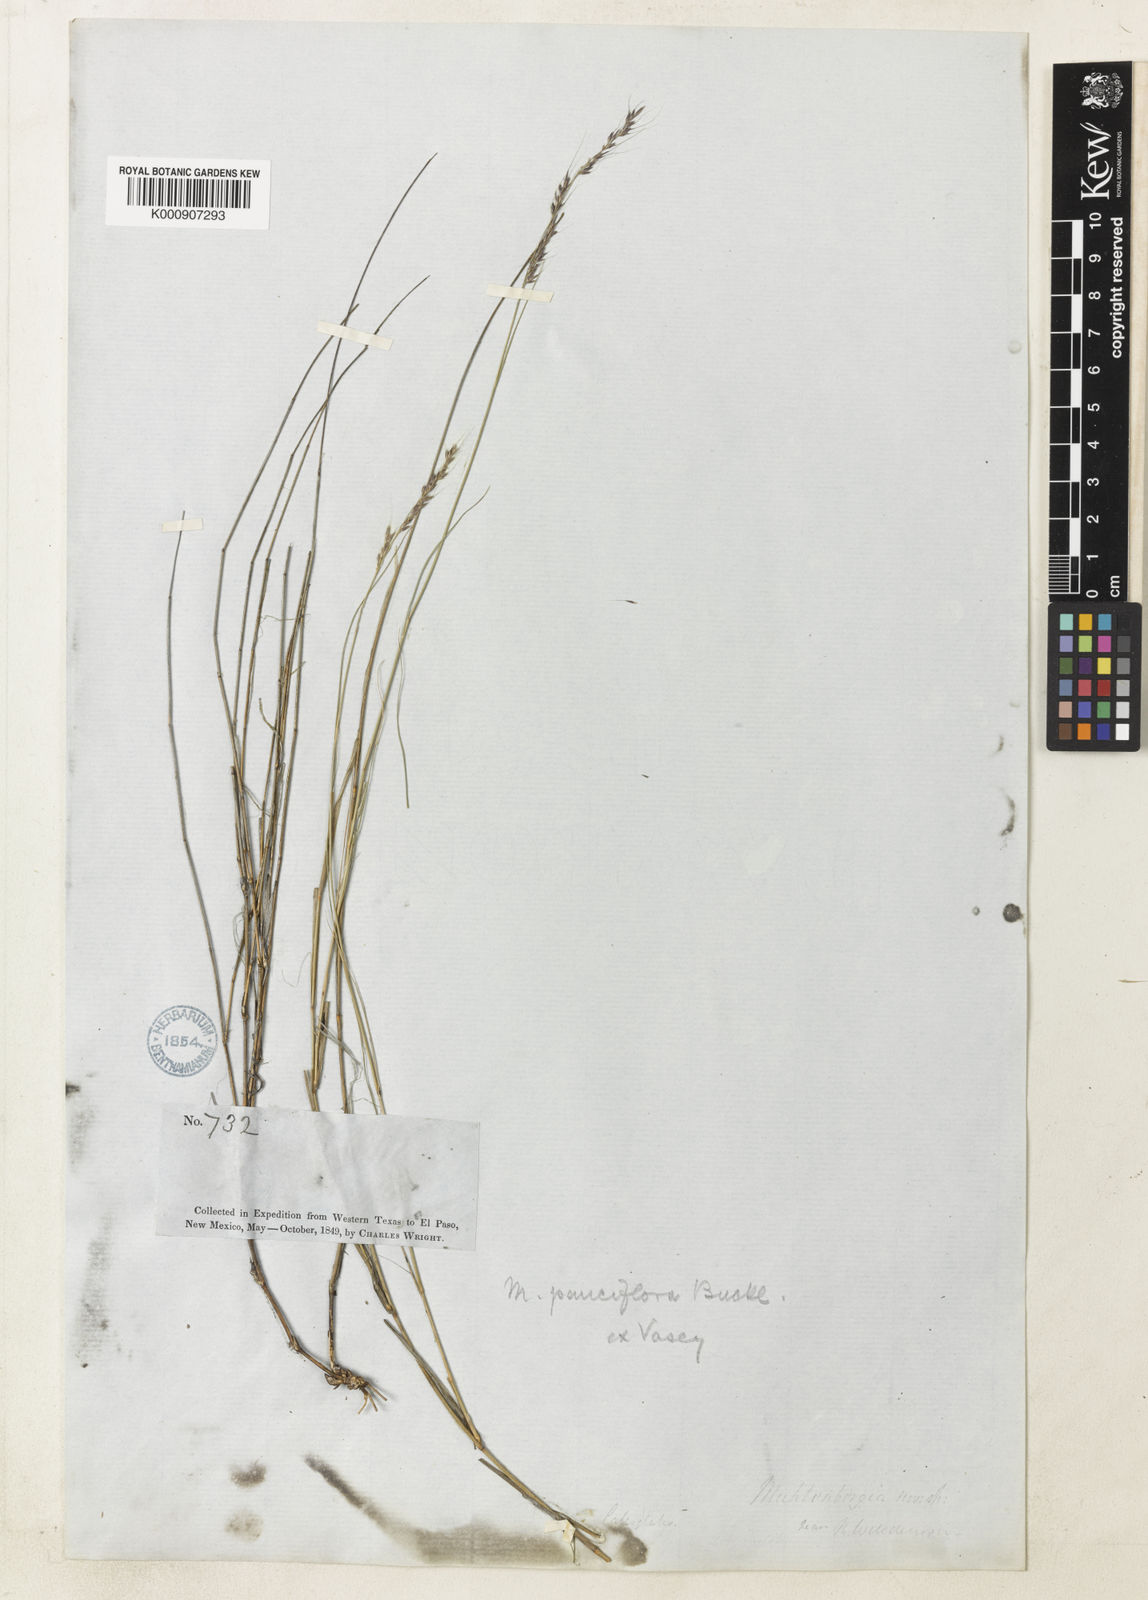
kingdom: Plantae
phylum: Tracheophyta
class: Liliopsida
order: Poales
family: Poaceae
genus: Muhlenbergia
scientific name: Muhlenbergia pauciflora
